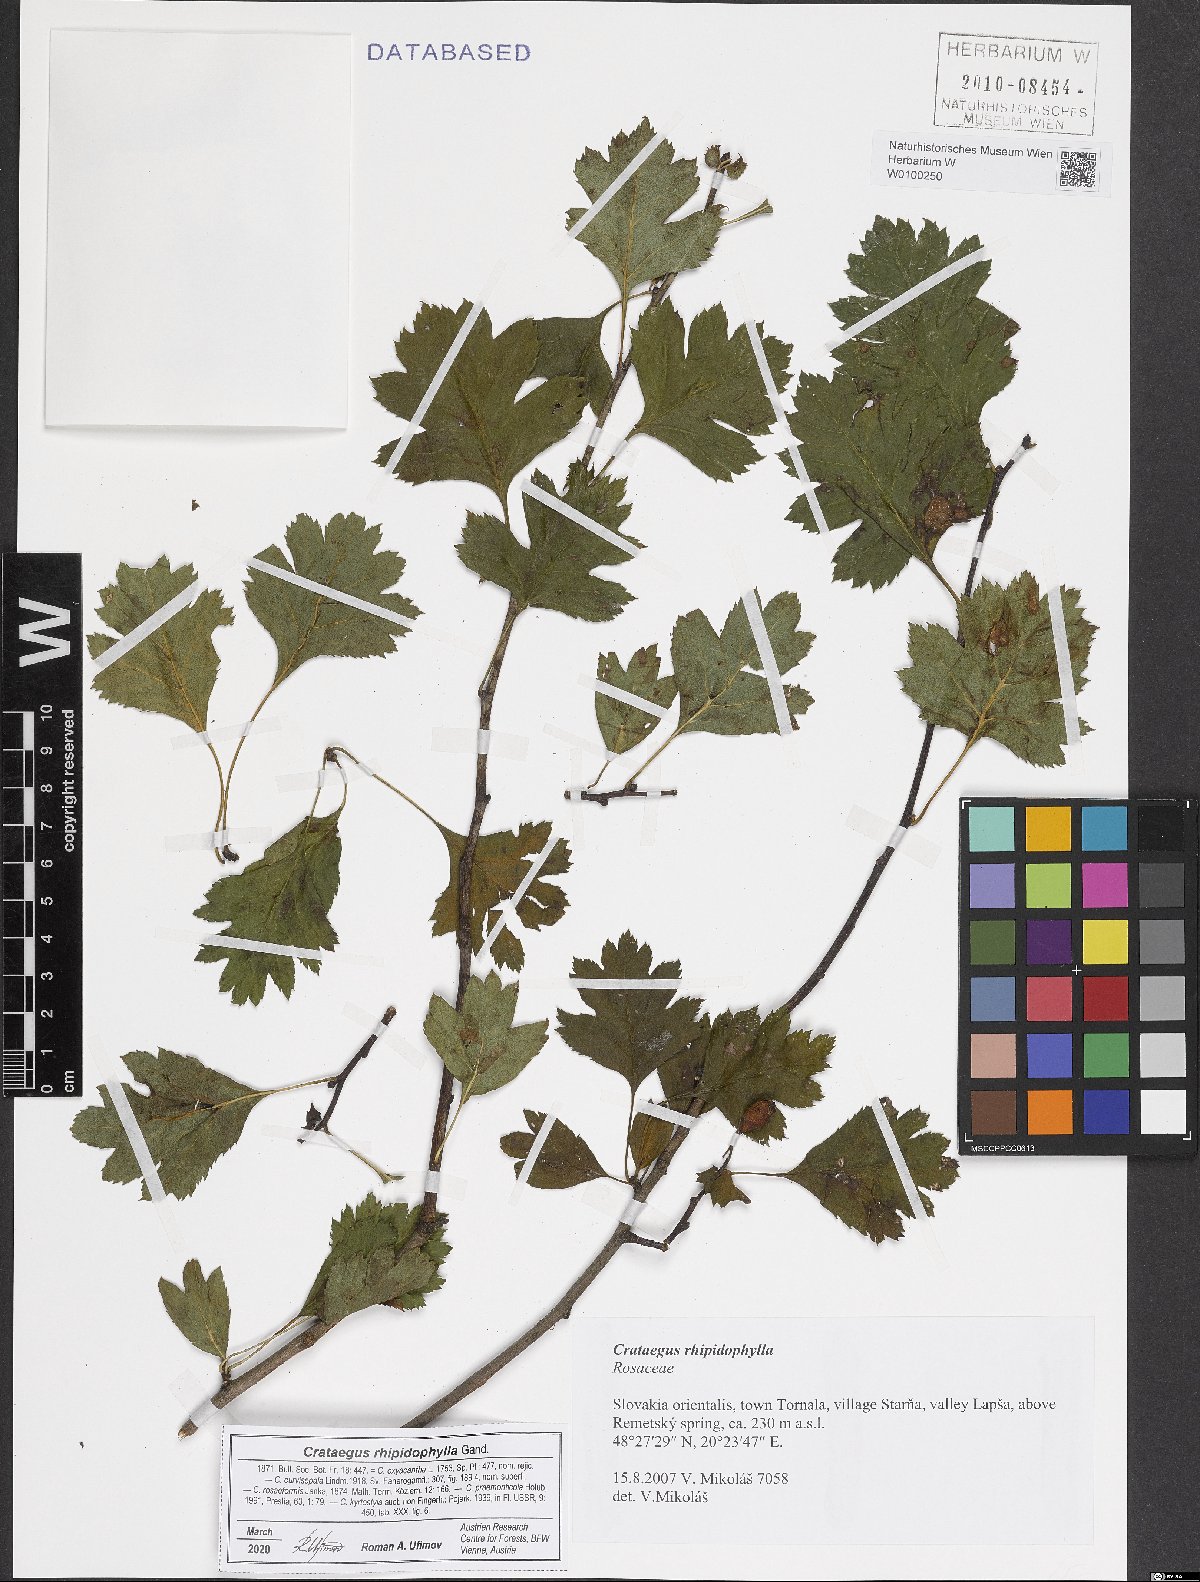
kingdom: Plantae
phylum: Tracheophyta
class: Magnoliopsida
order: Rosales
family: Rosaceae
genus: Crataegus
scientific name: Crataegus rhipidophylla
